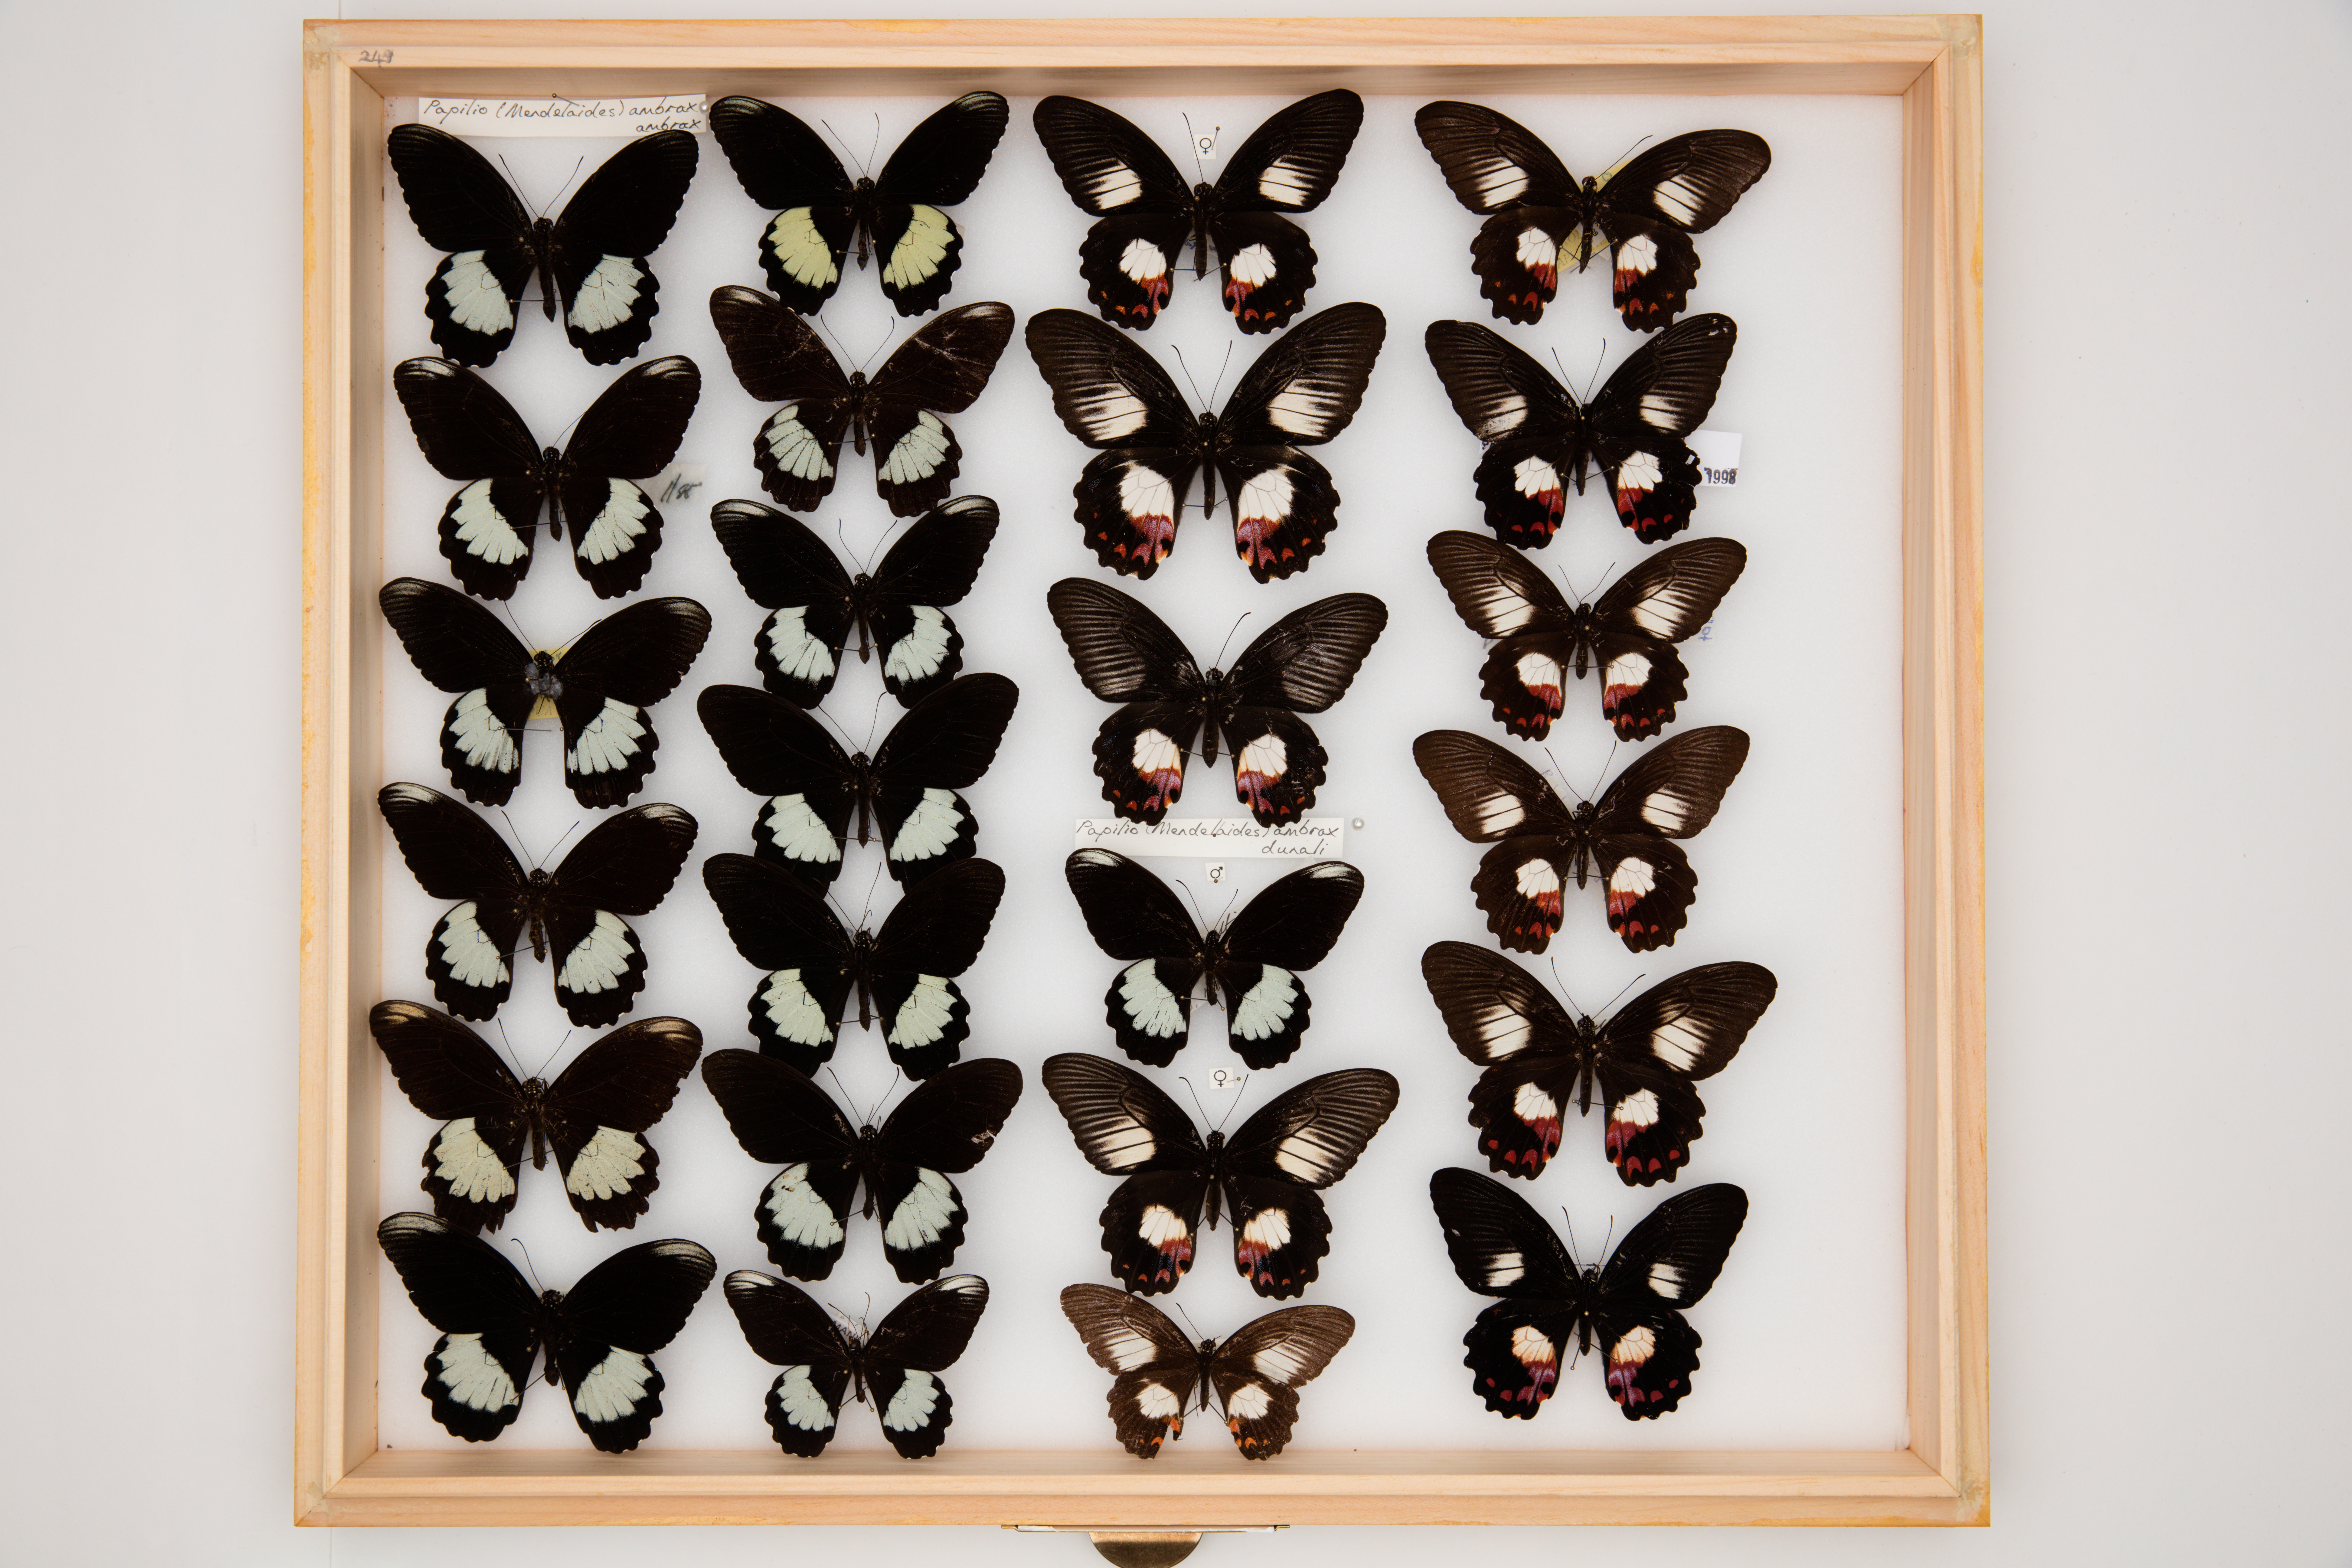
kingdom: Animalia
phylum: Arthropoda
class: Insecta
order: Lepidoptera
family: Papilionidae
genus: Papilio
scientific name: Papilio ambrax
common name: Ambrax butterfly
